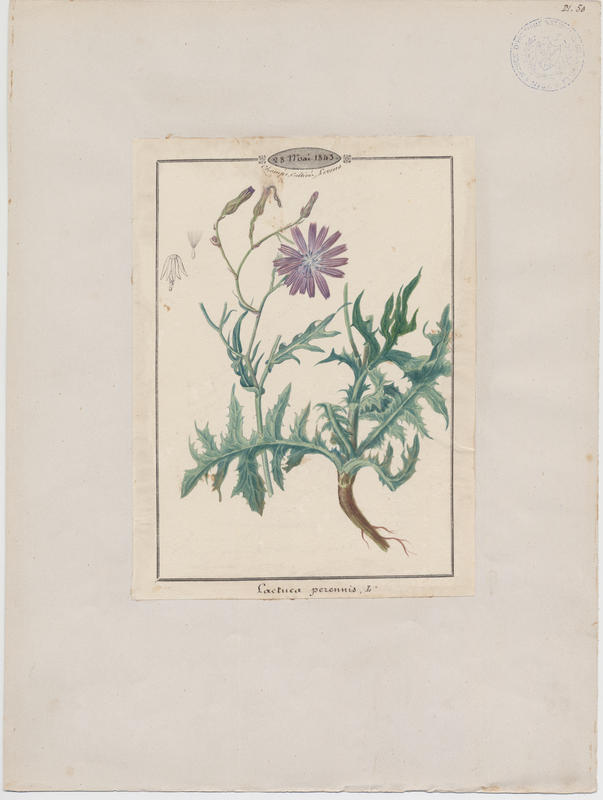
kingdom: Plantae
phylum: Tracheophyta
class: Magnoliopsida
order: Asterales
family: Asteraceae
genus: Lactuca
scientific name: Lactuca perennis
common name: Mountain lettuce
